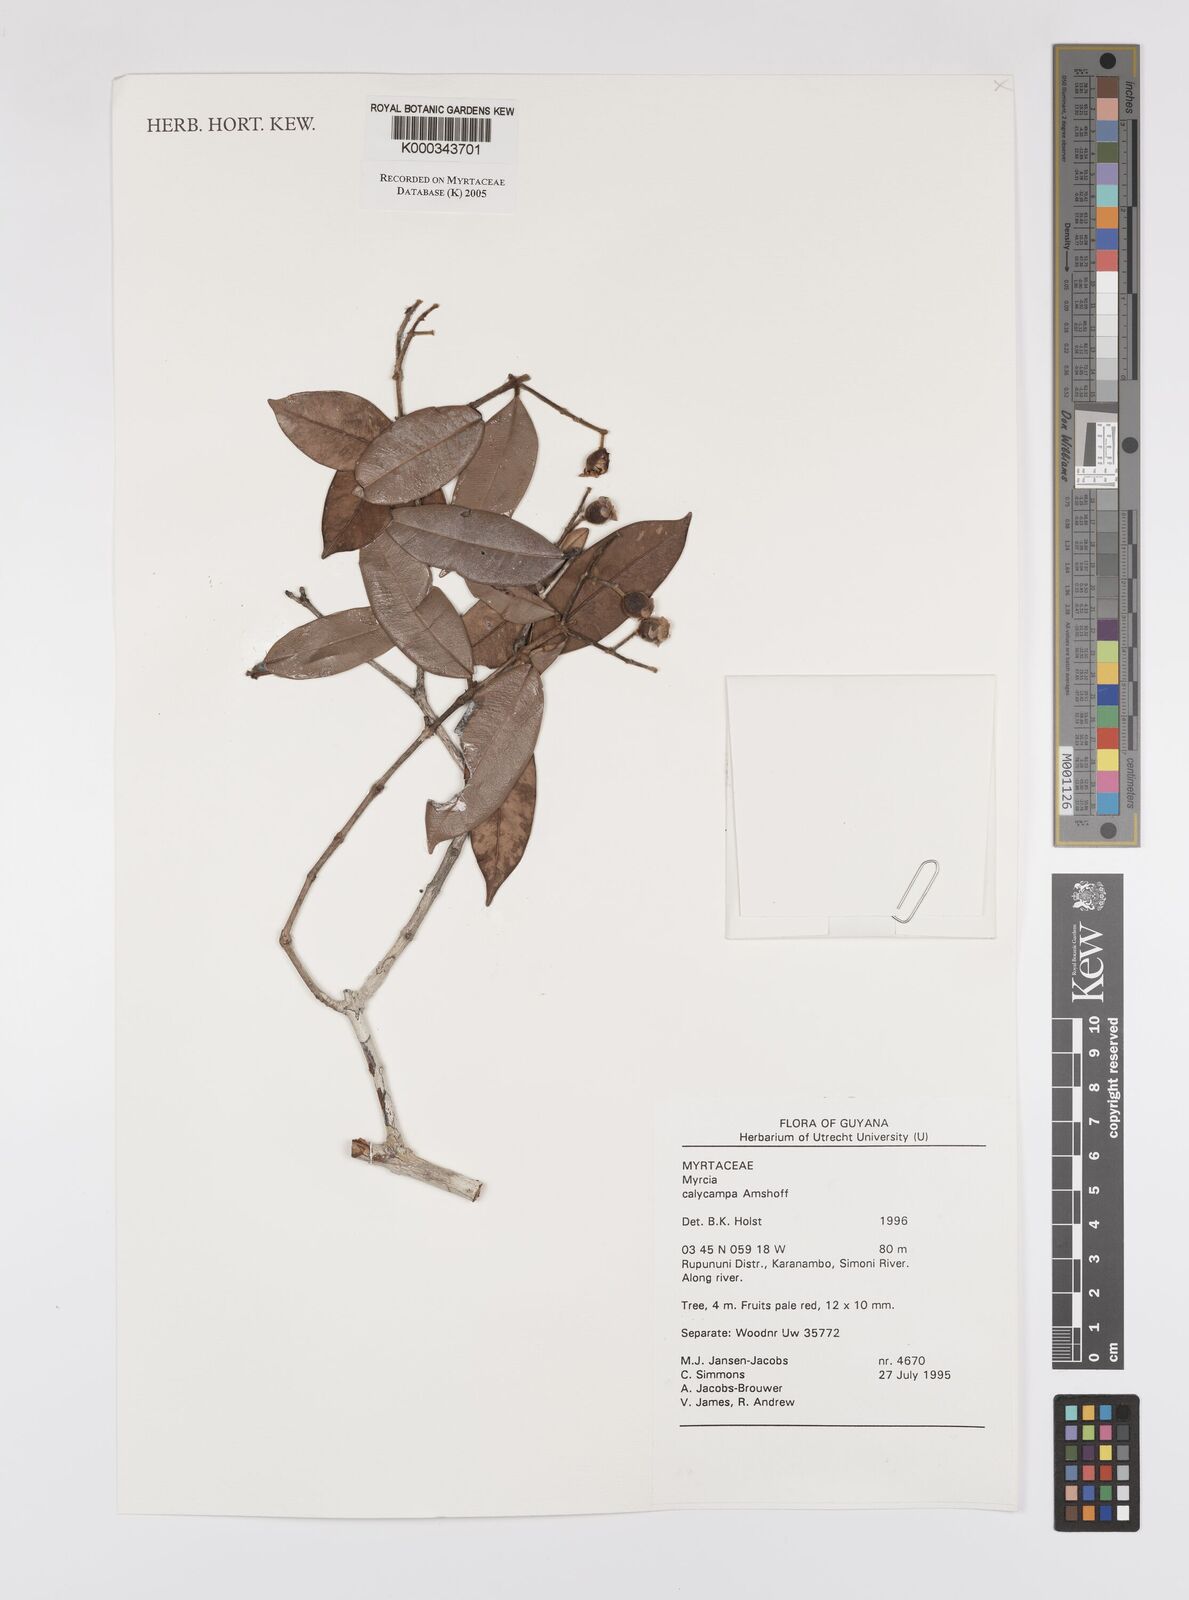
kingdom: Plantae
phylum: Tracheophyta
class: Magnoliopsida
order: Myrtales
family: Myrtaceae
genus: Myrcia
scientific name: Myrcia calycampa
